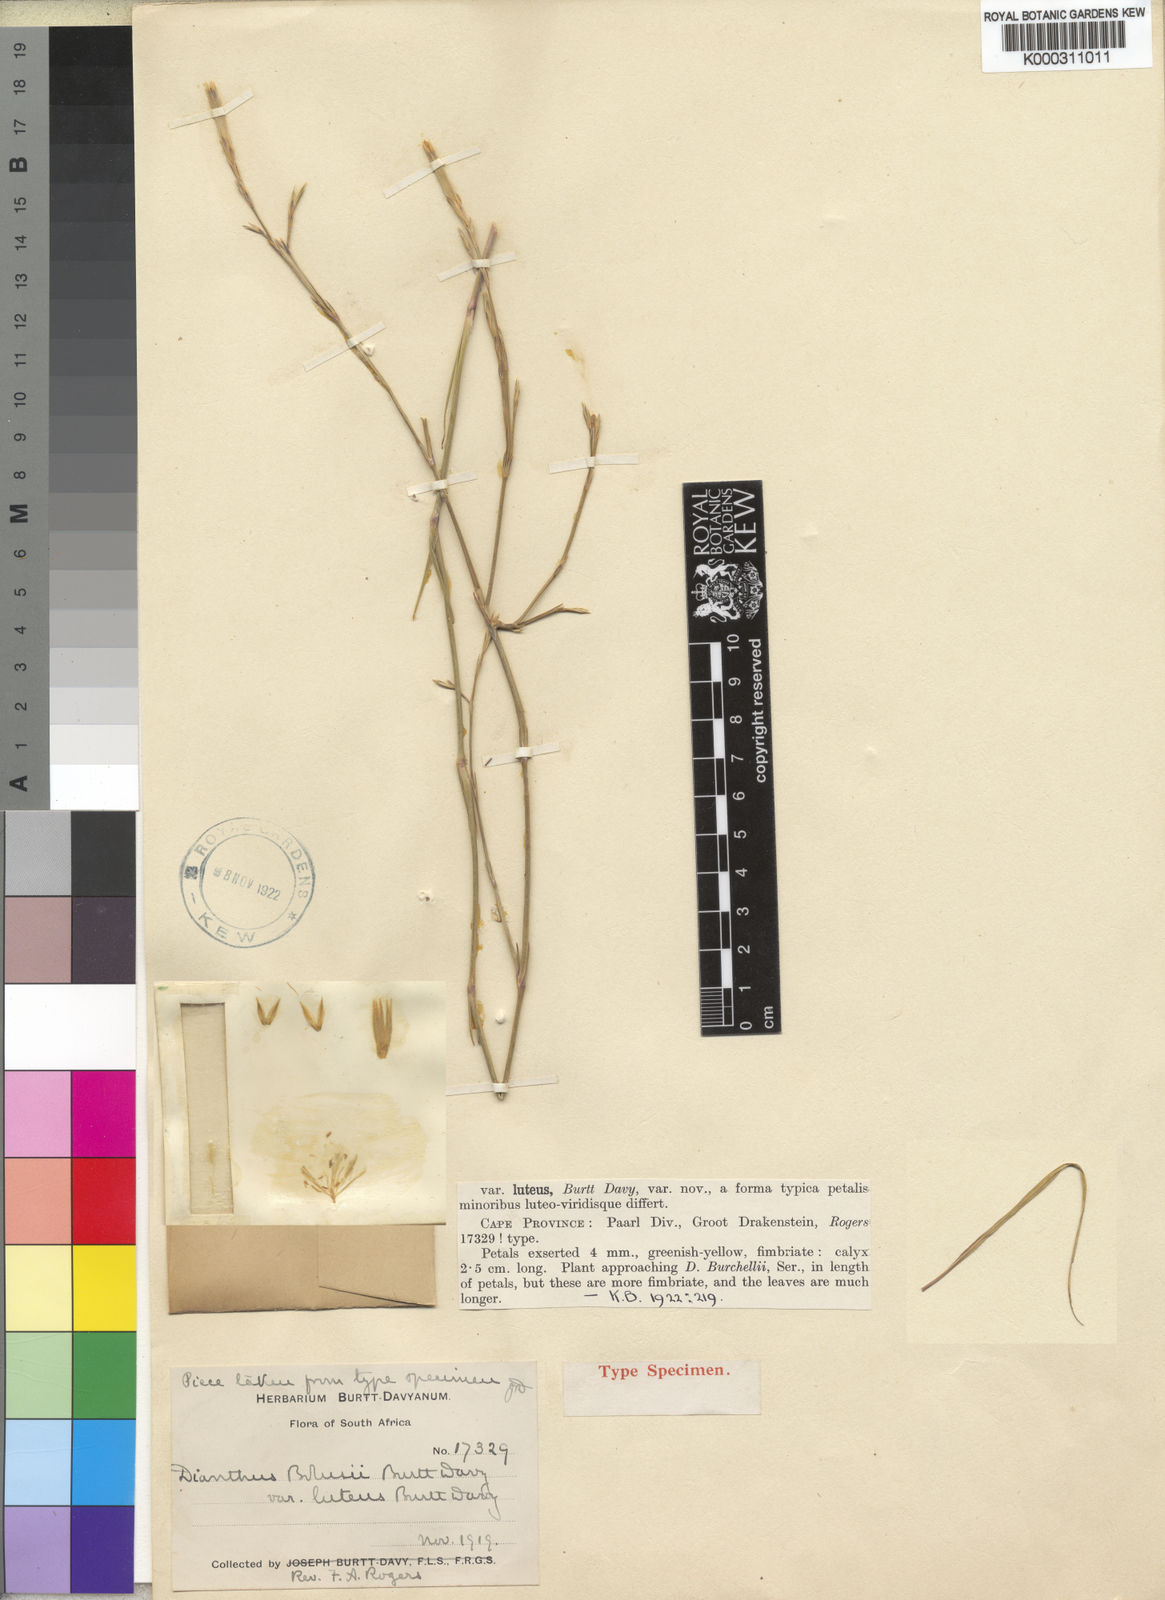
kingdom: Plantae
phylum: Tracheophyta
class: Magnoliopsida
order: Caryophyllales
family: Caryophyllaceae
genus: Dianthus
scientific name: Dianthus bolusii
